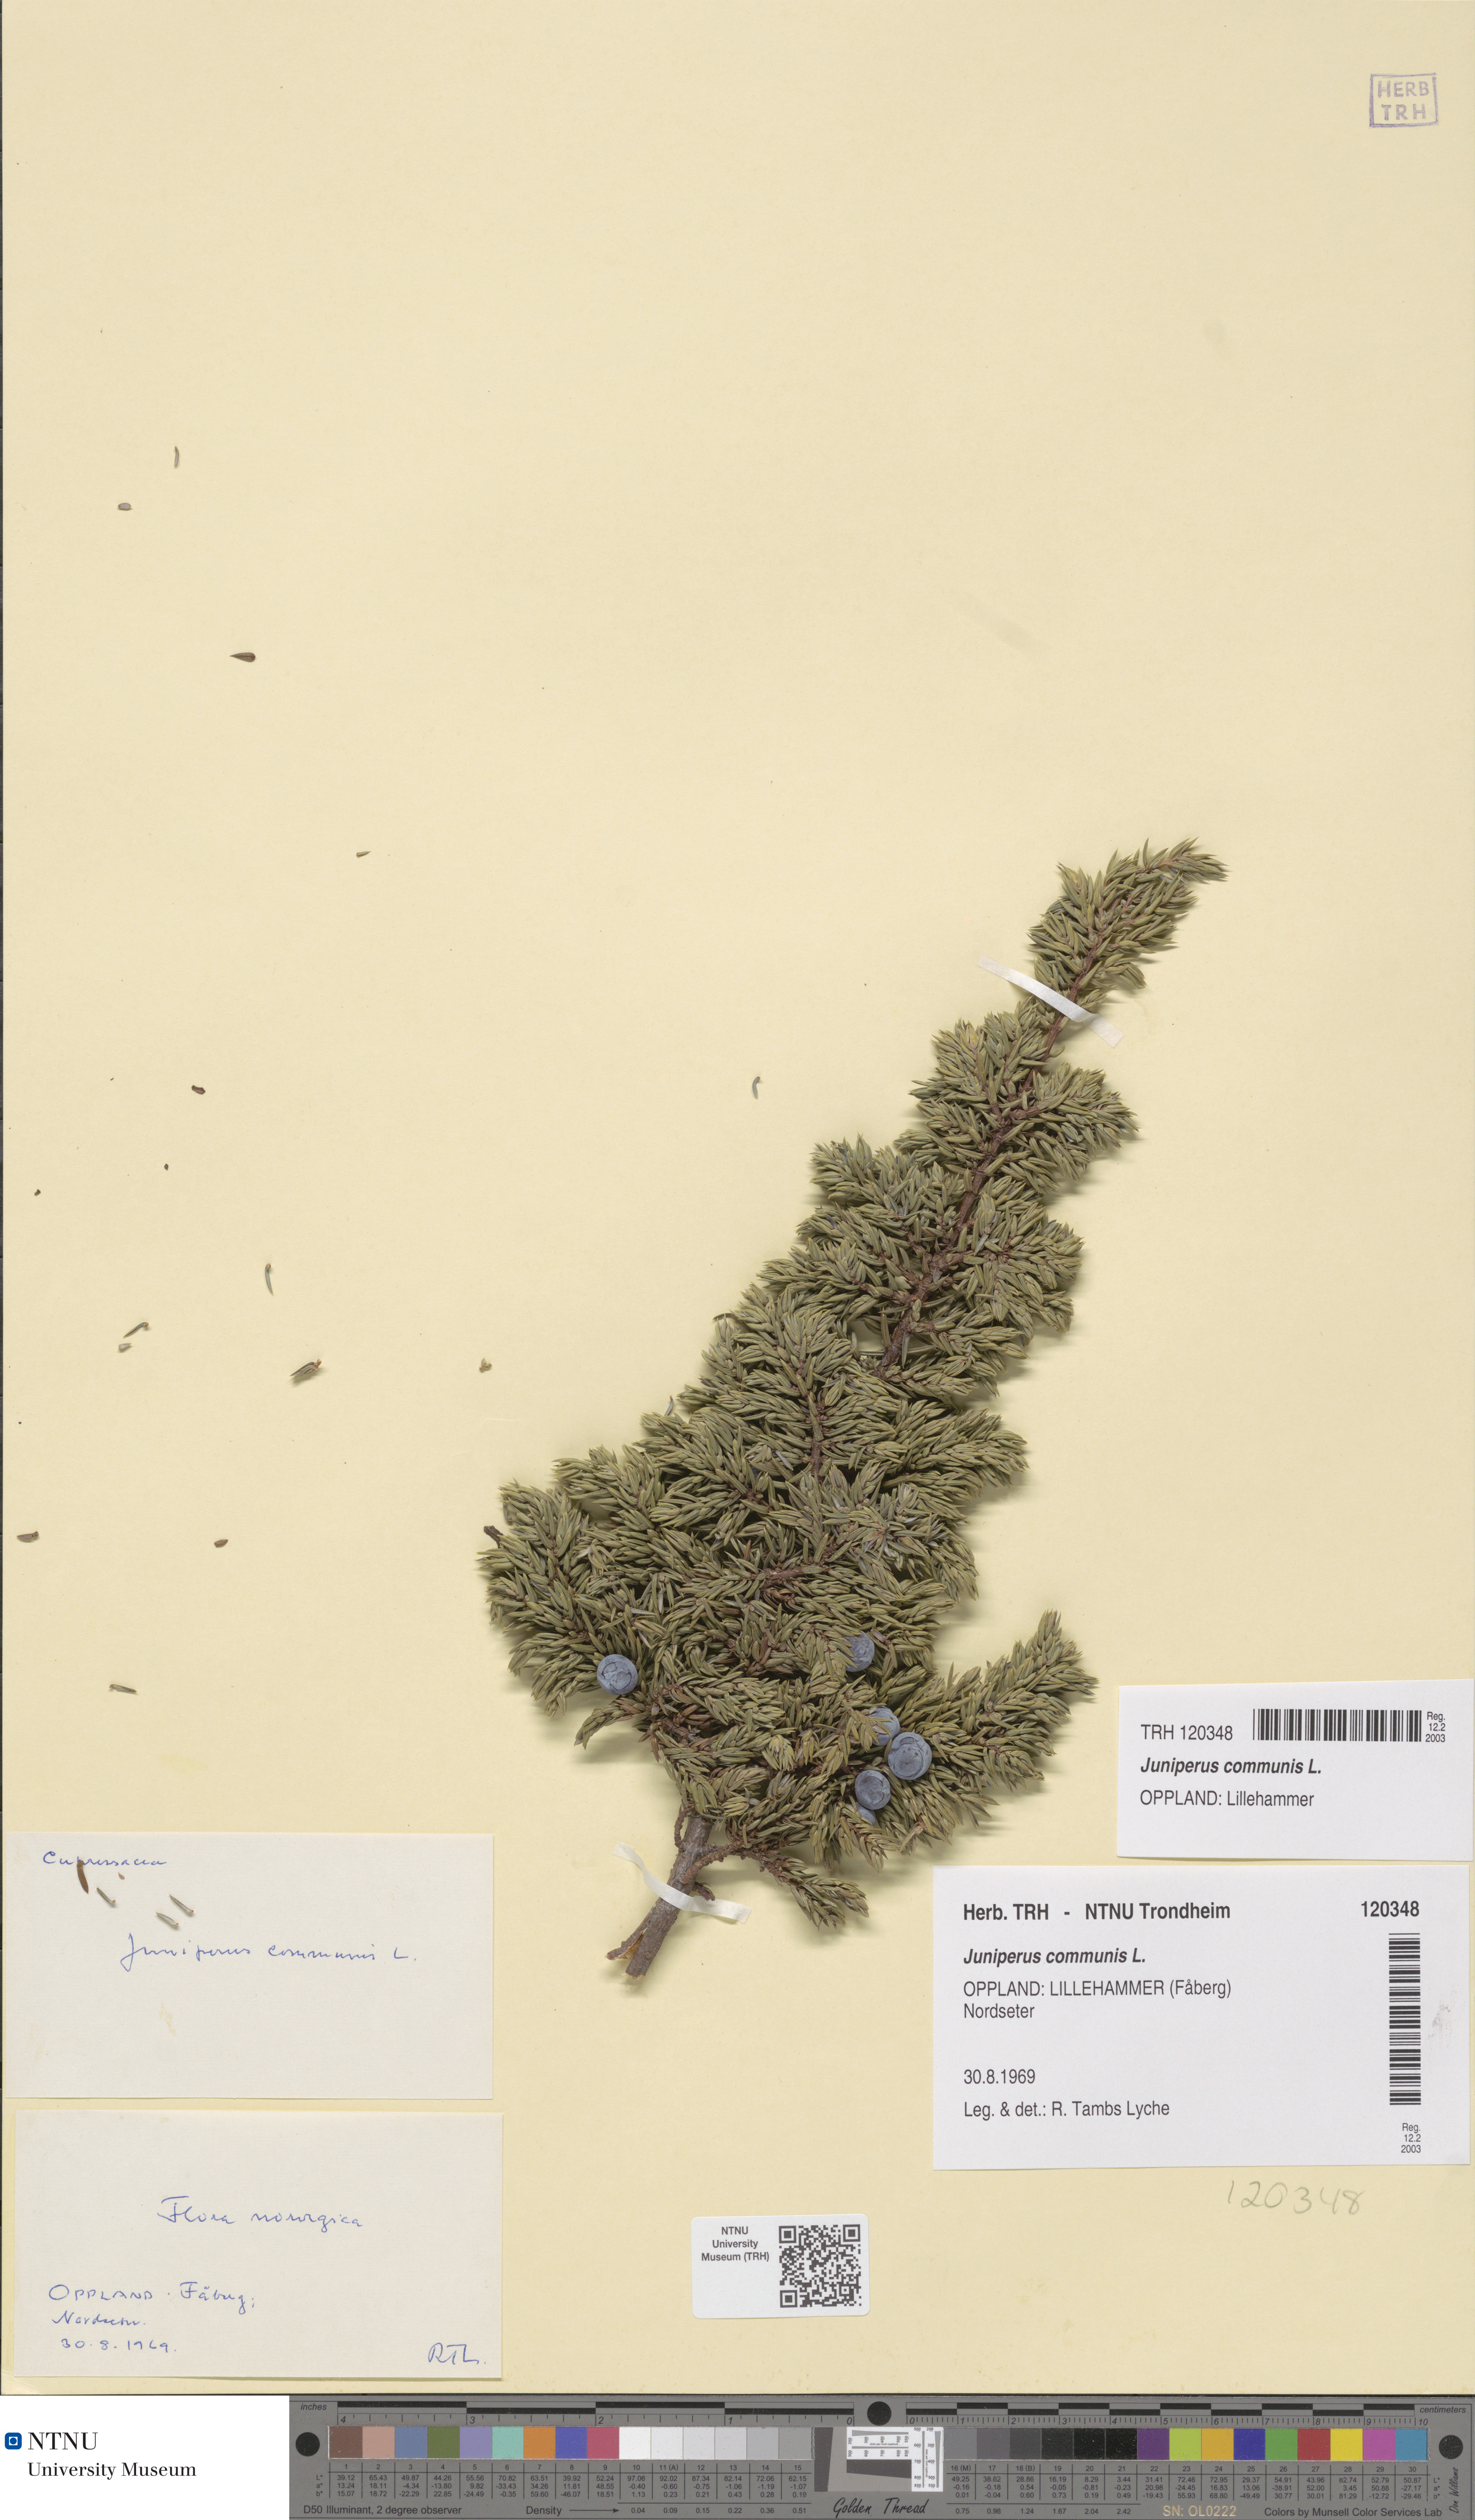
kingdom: Plantae
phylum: Tracheophyta
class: Pinopsida
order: Pinales
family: Cupressaceae
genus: Juniperus
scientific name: Juniperus communis
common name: Common juniper
